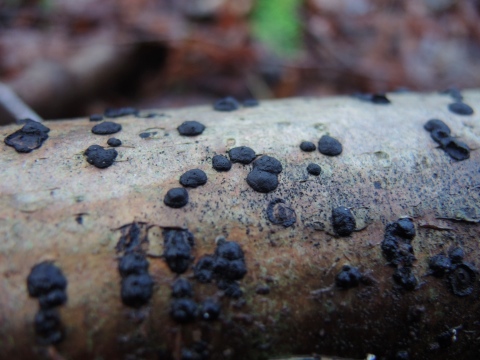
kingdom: Fungi
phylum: Ascomycota
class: Sordariomycetes
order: Xylariales
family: Hypoxylaceae
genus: Hypoxylon
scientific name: Hypoxylon fuscum
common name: kegleformet kulbær
